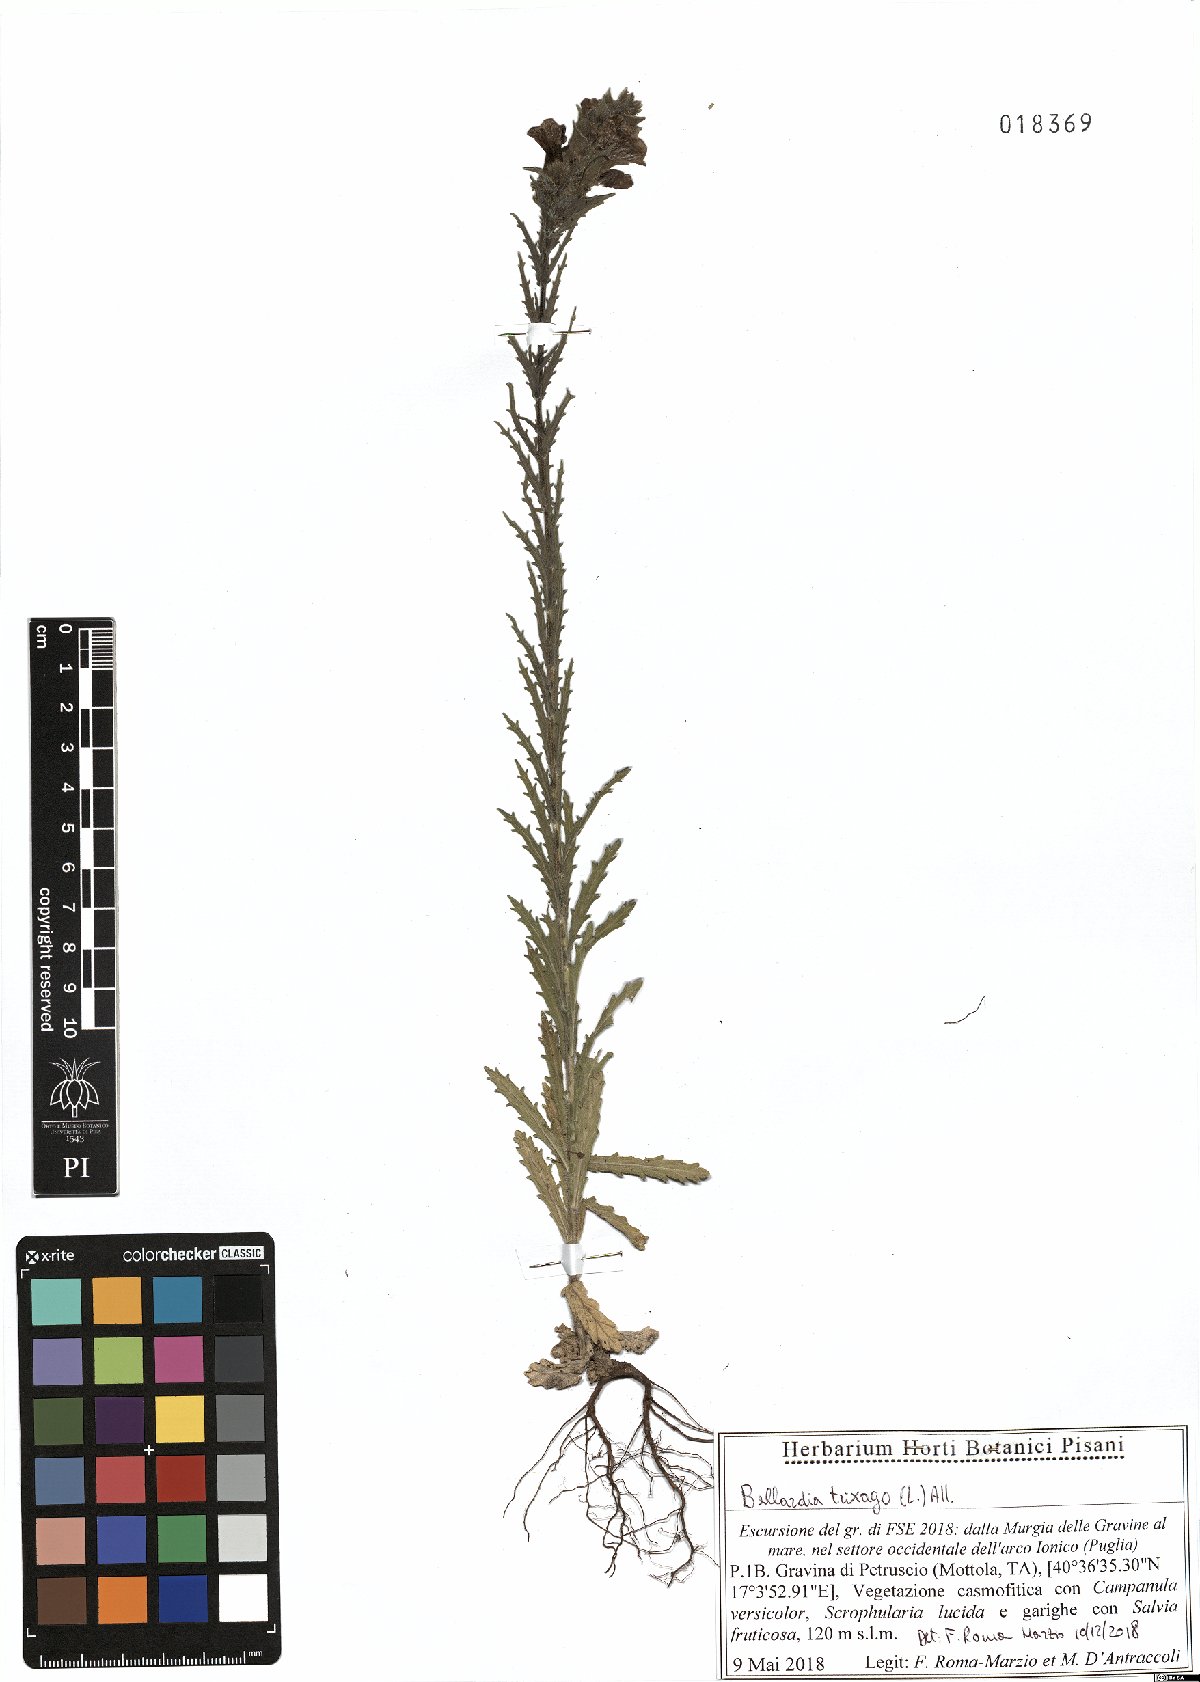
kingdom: Plantae
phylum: Tracheophyta
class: Magnoliopsida
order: Lamiales
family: Orobanchaceae
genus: Bellardia
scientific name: Bellardia trixago
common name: Mediterranean lineseed
